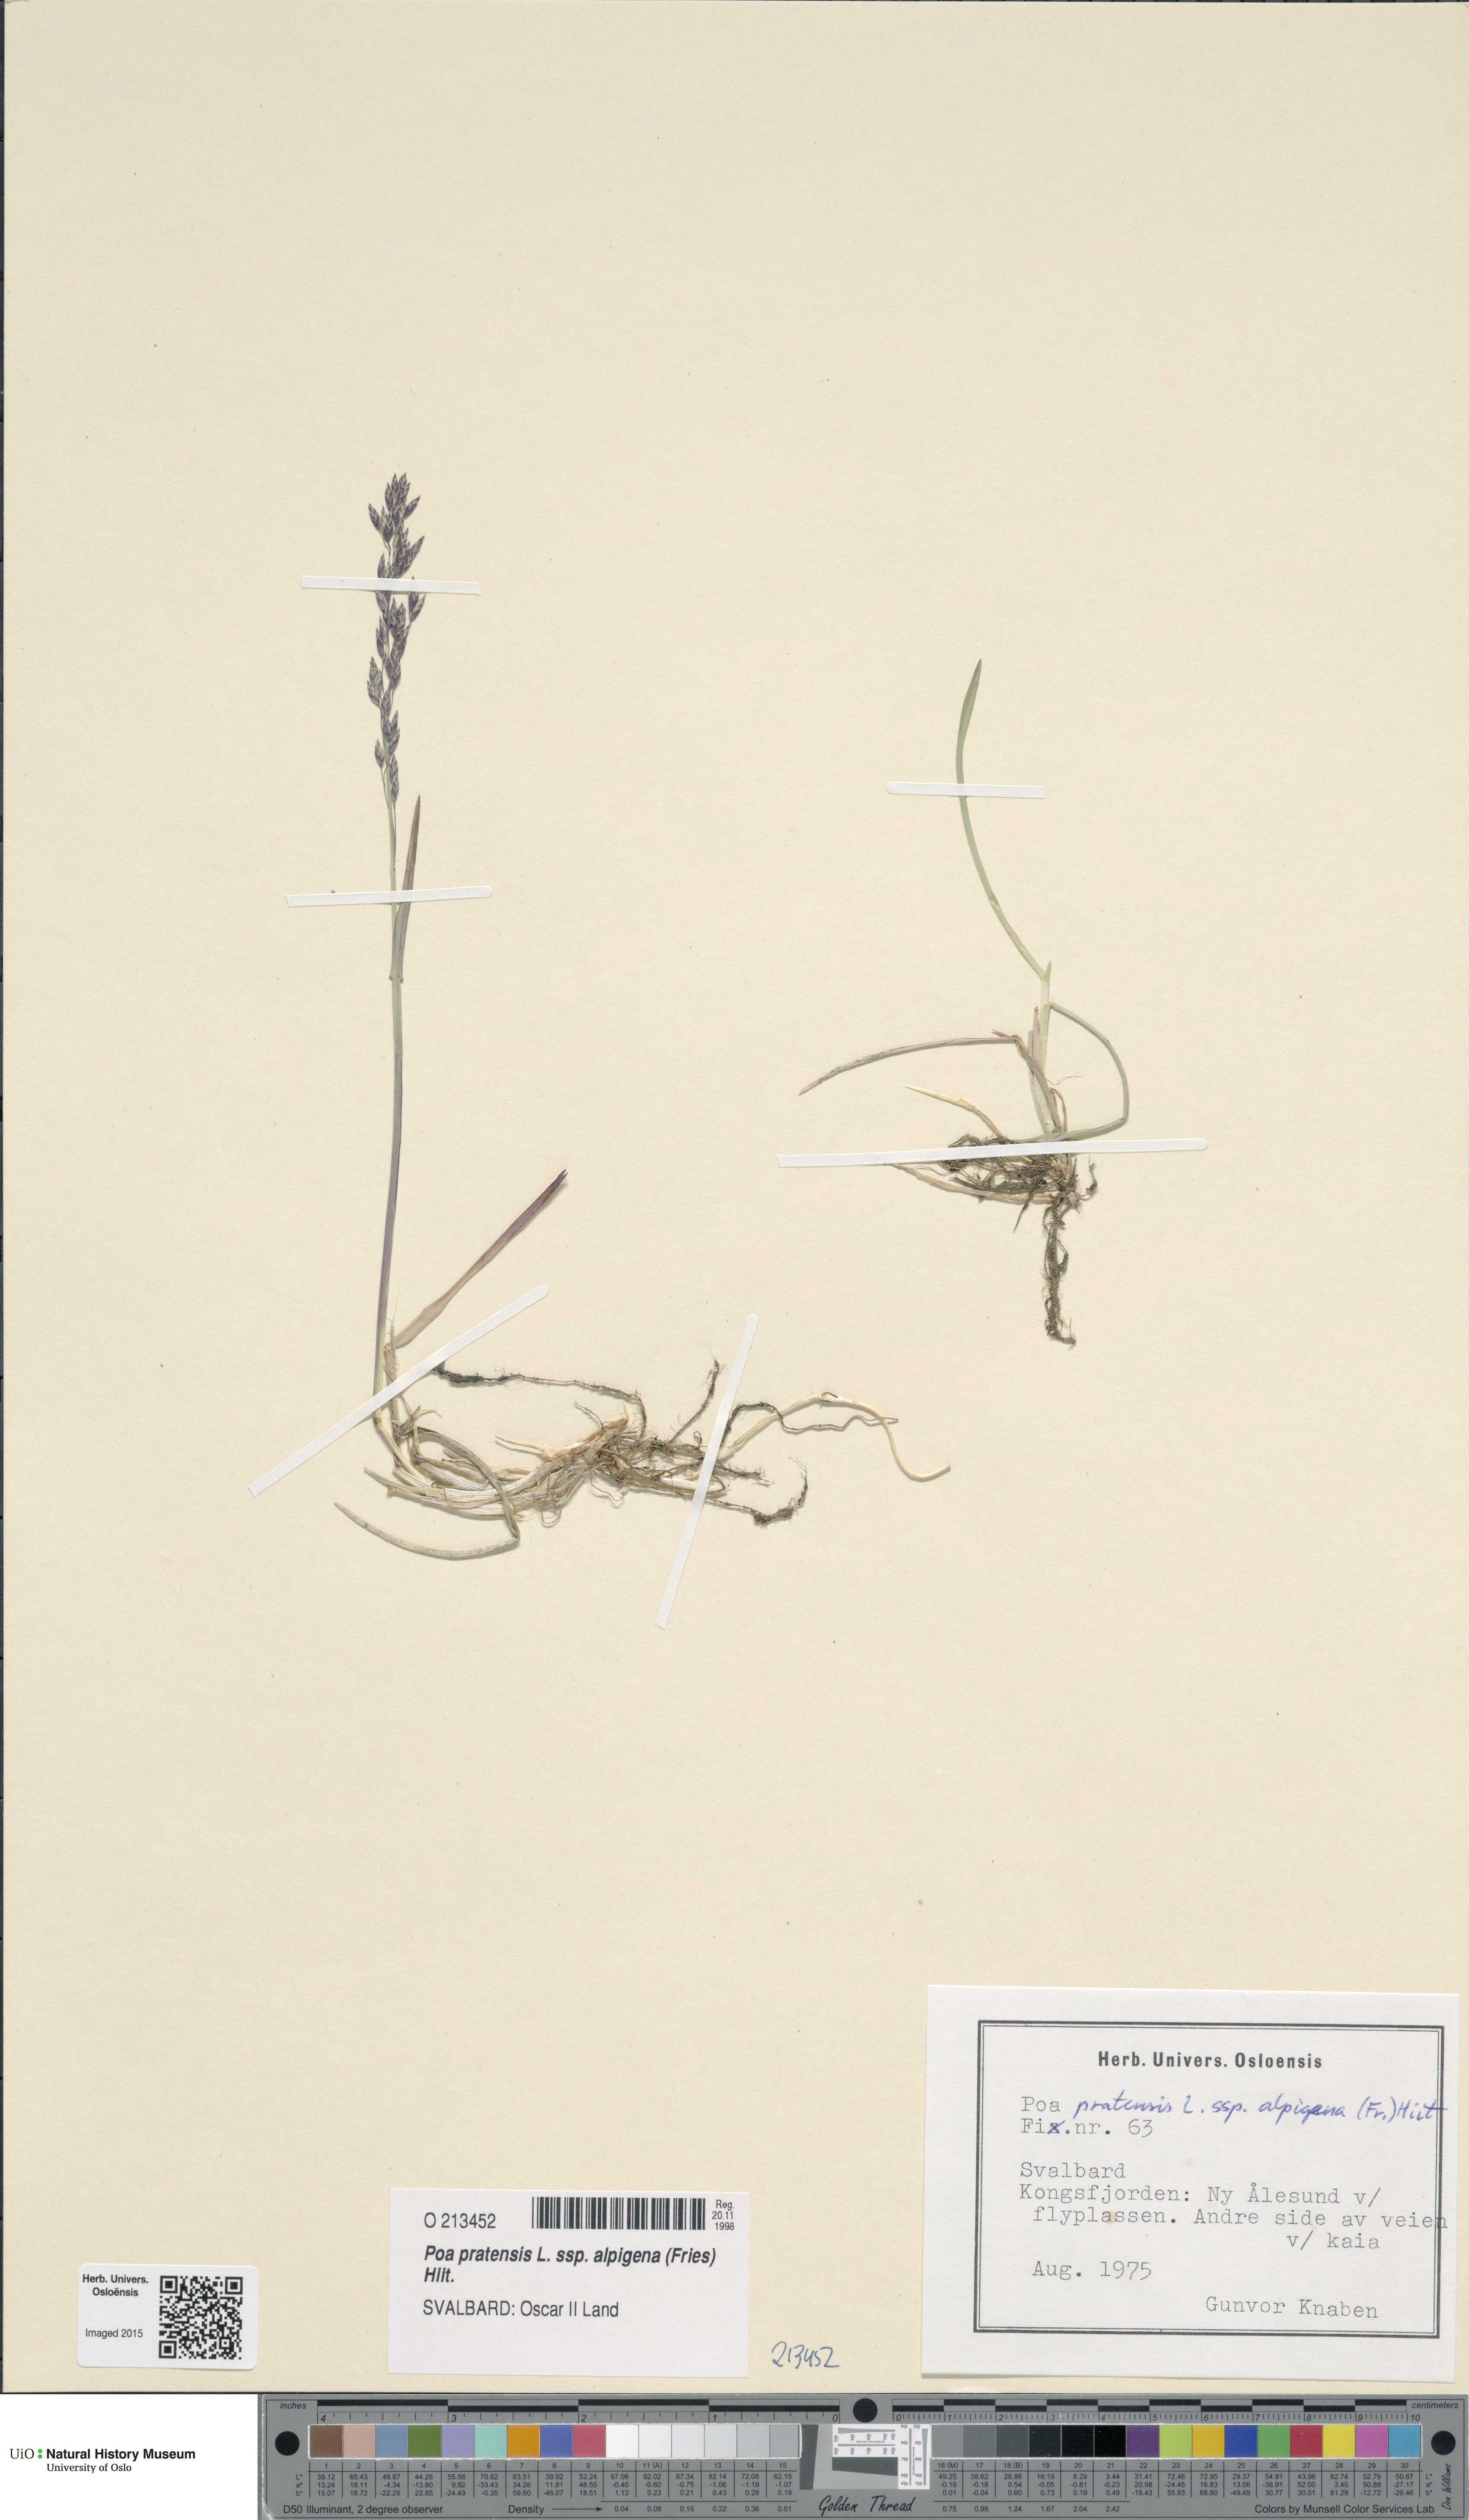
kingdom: Plantae
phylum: Tracheophyta
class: Liliopsida
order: Poales
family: Poaceae
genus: Poa
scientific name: Poa alpigena
